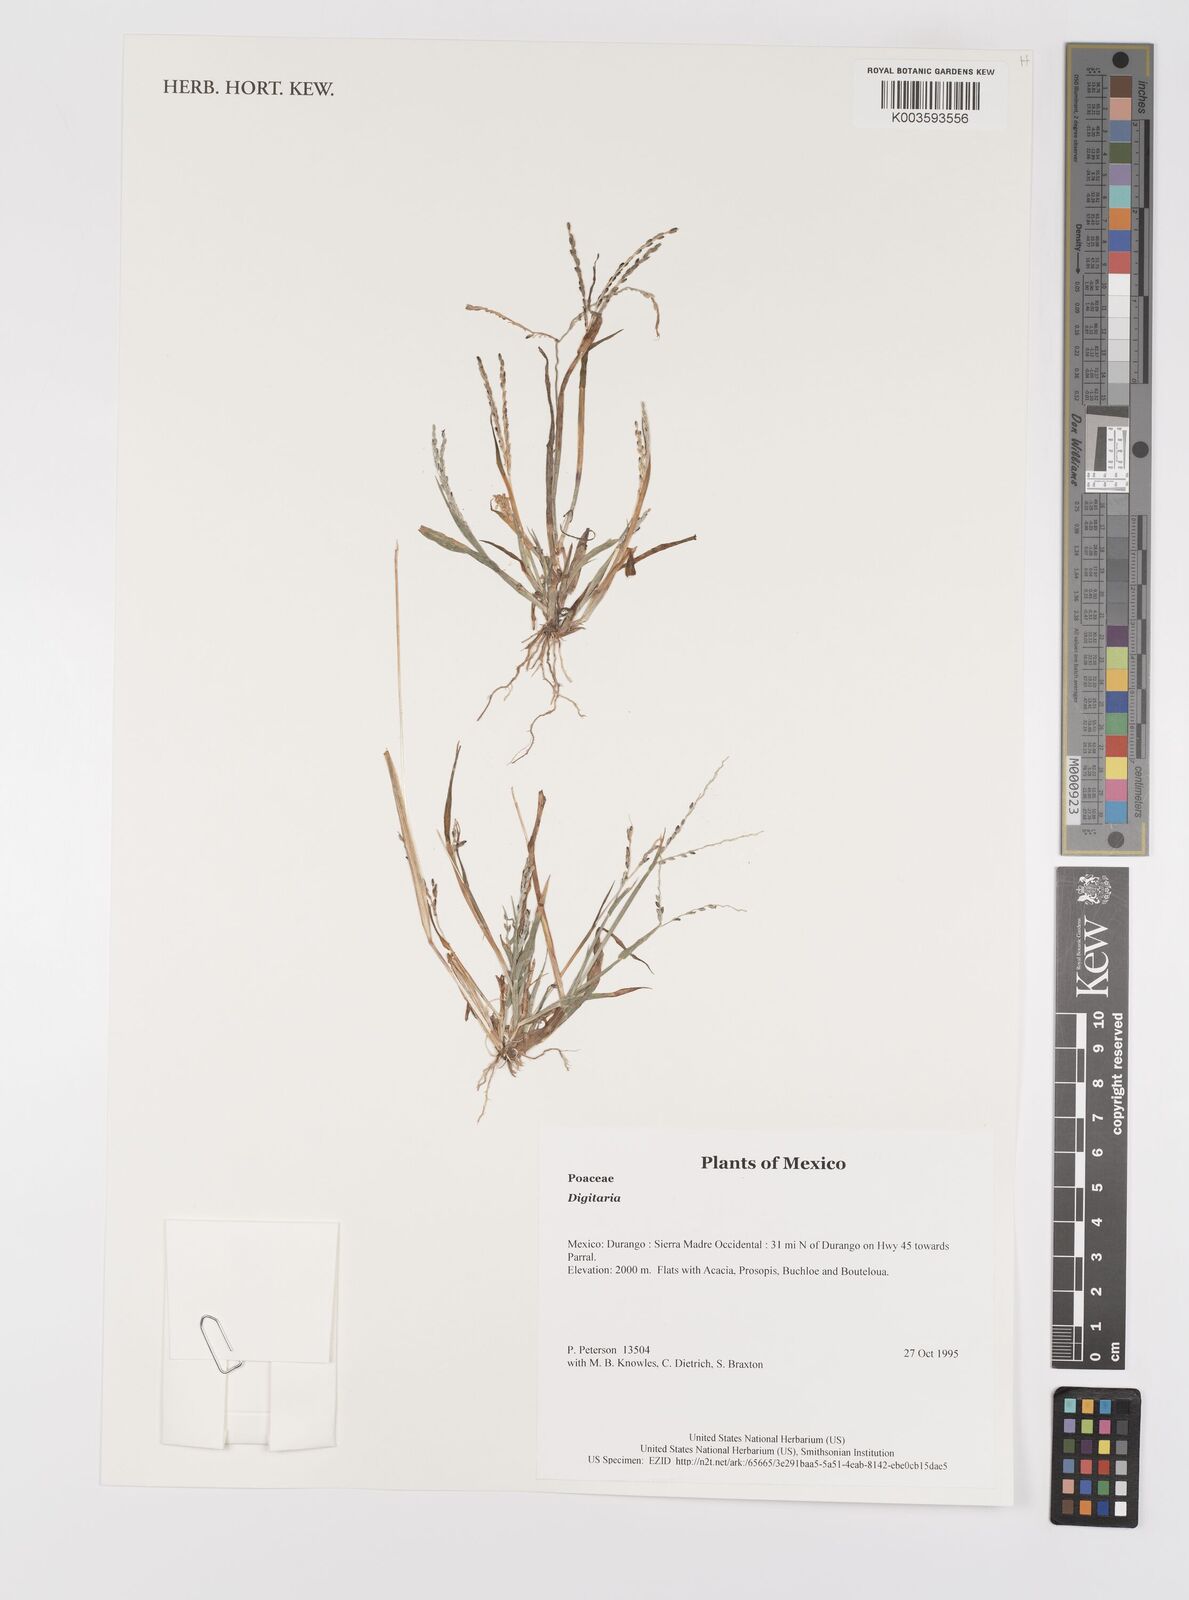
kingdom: Plantae
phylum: Tracheophyta
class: Liliopsida
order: Poales
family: Poaceae
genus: Digitaria
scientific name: Digitaria spec
